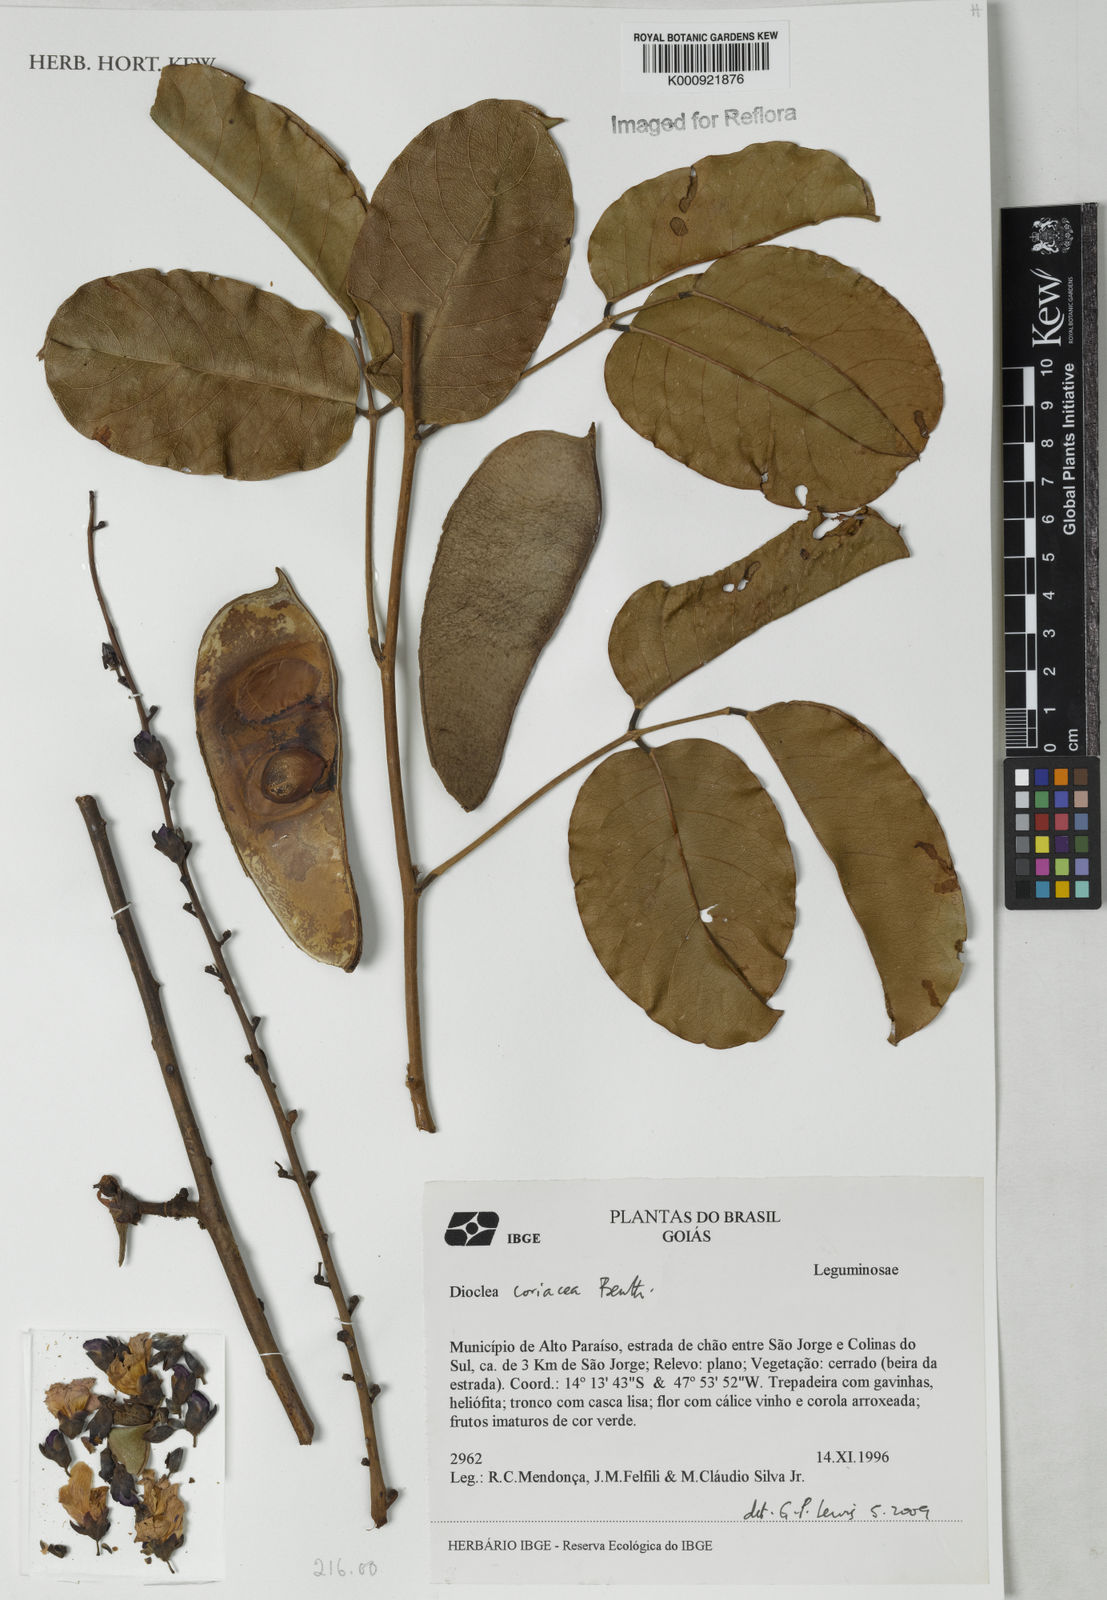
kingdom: Plantae
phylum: Tracheophyta
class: Magnoliopsida
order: Fabales
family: Fabaceae
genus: Macropsychanthus
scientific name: Macropsychanthus coriaceus
